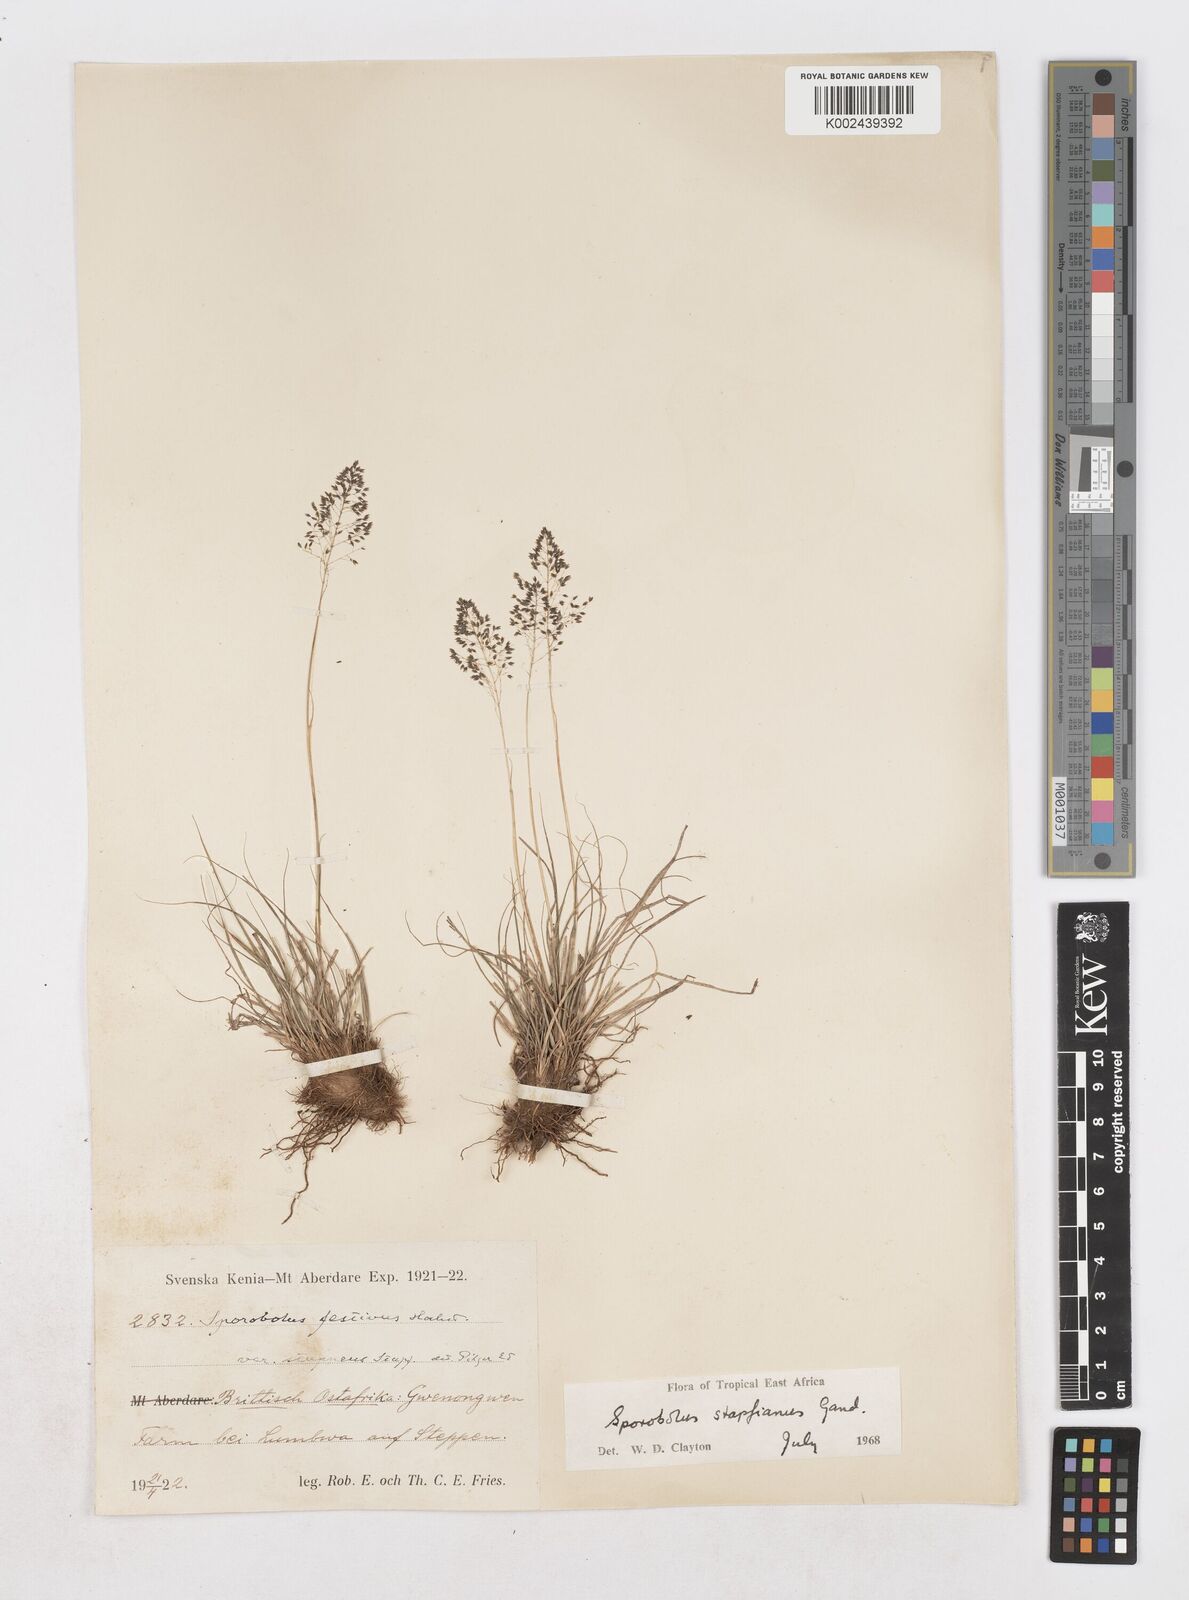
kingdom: Plantae
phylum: Tracheophyta
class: Liliopsida
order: Poales
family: Poaceae
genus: Sporobolus
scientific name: Sporobolus stapfianus
